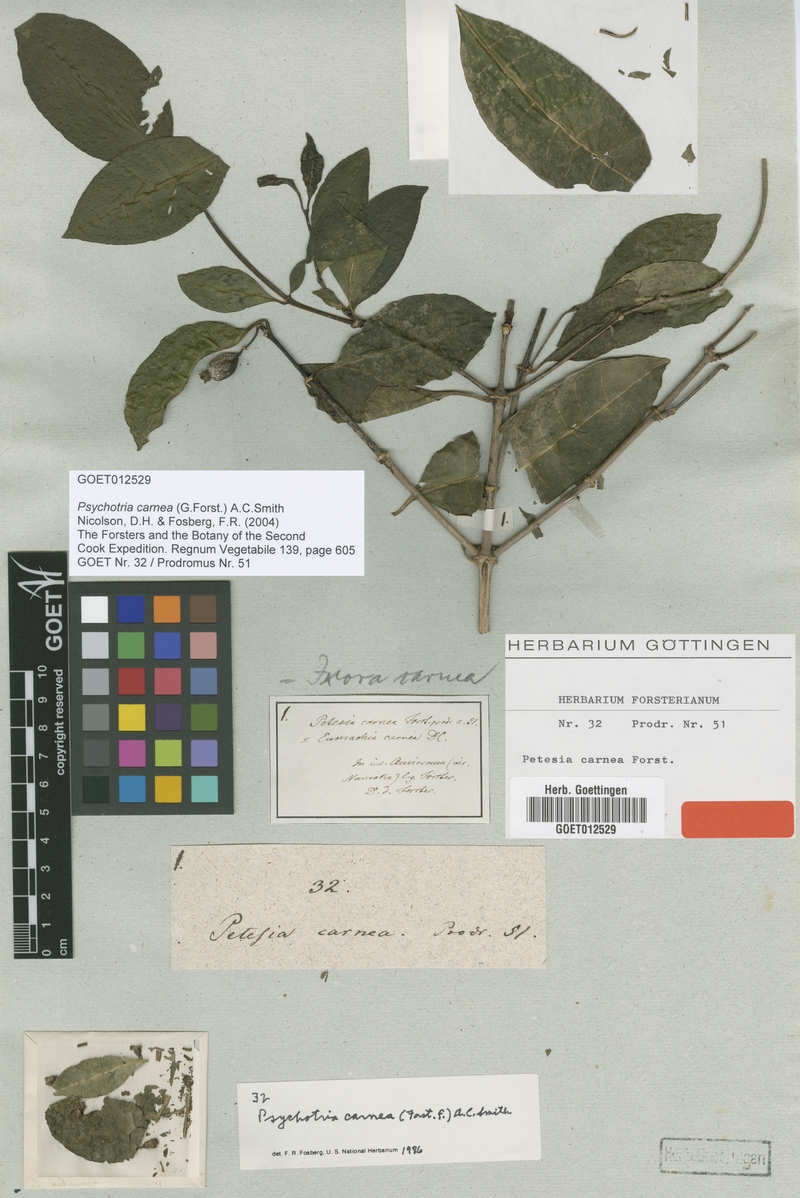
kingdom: Plantae
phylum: Tracheophyta
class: Magnoliopsida
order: Gentianales
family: Rubiaceae
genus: Eumachia
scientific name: Eumachia carnea
